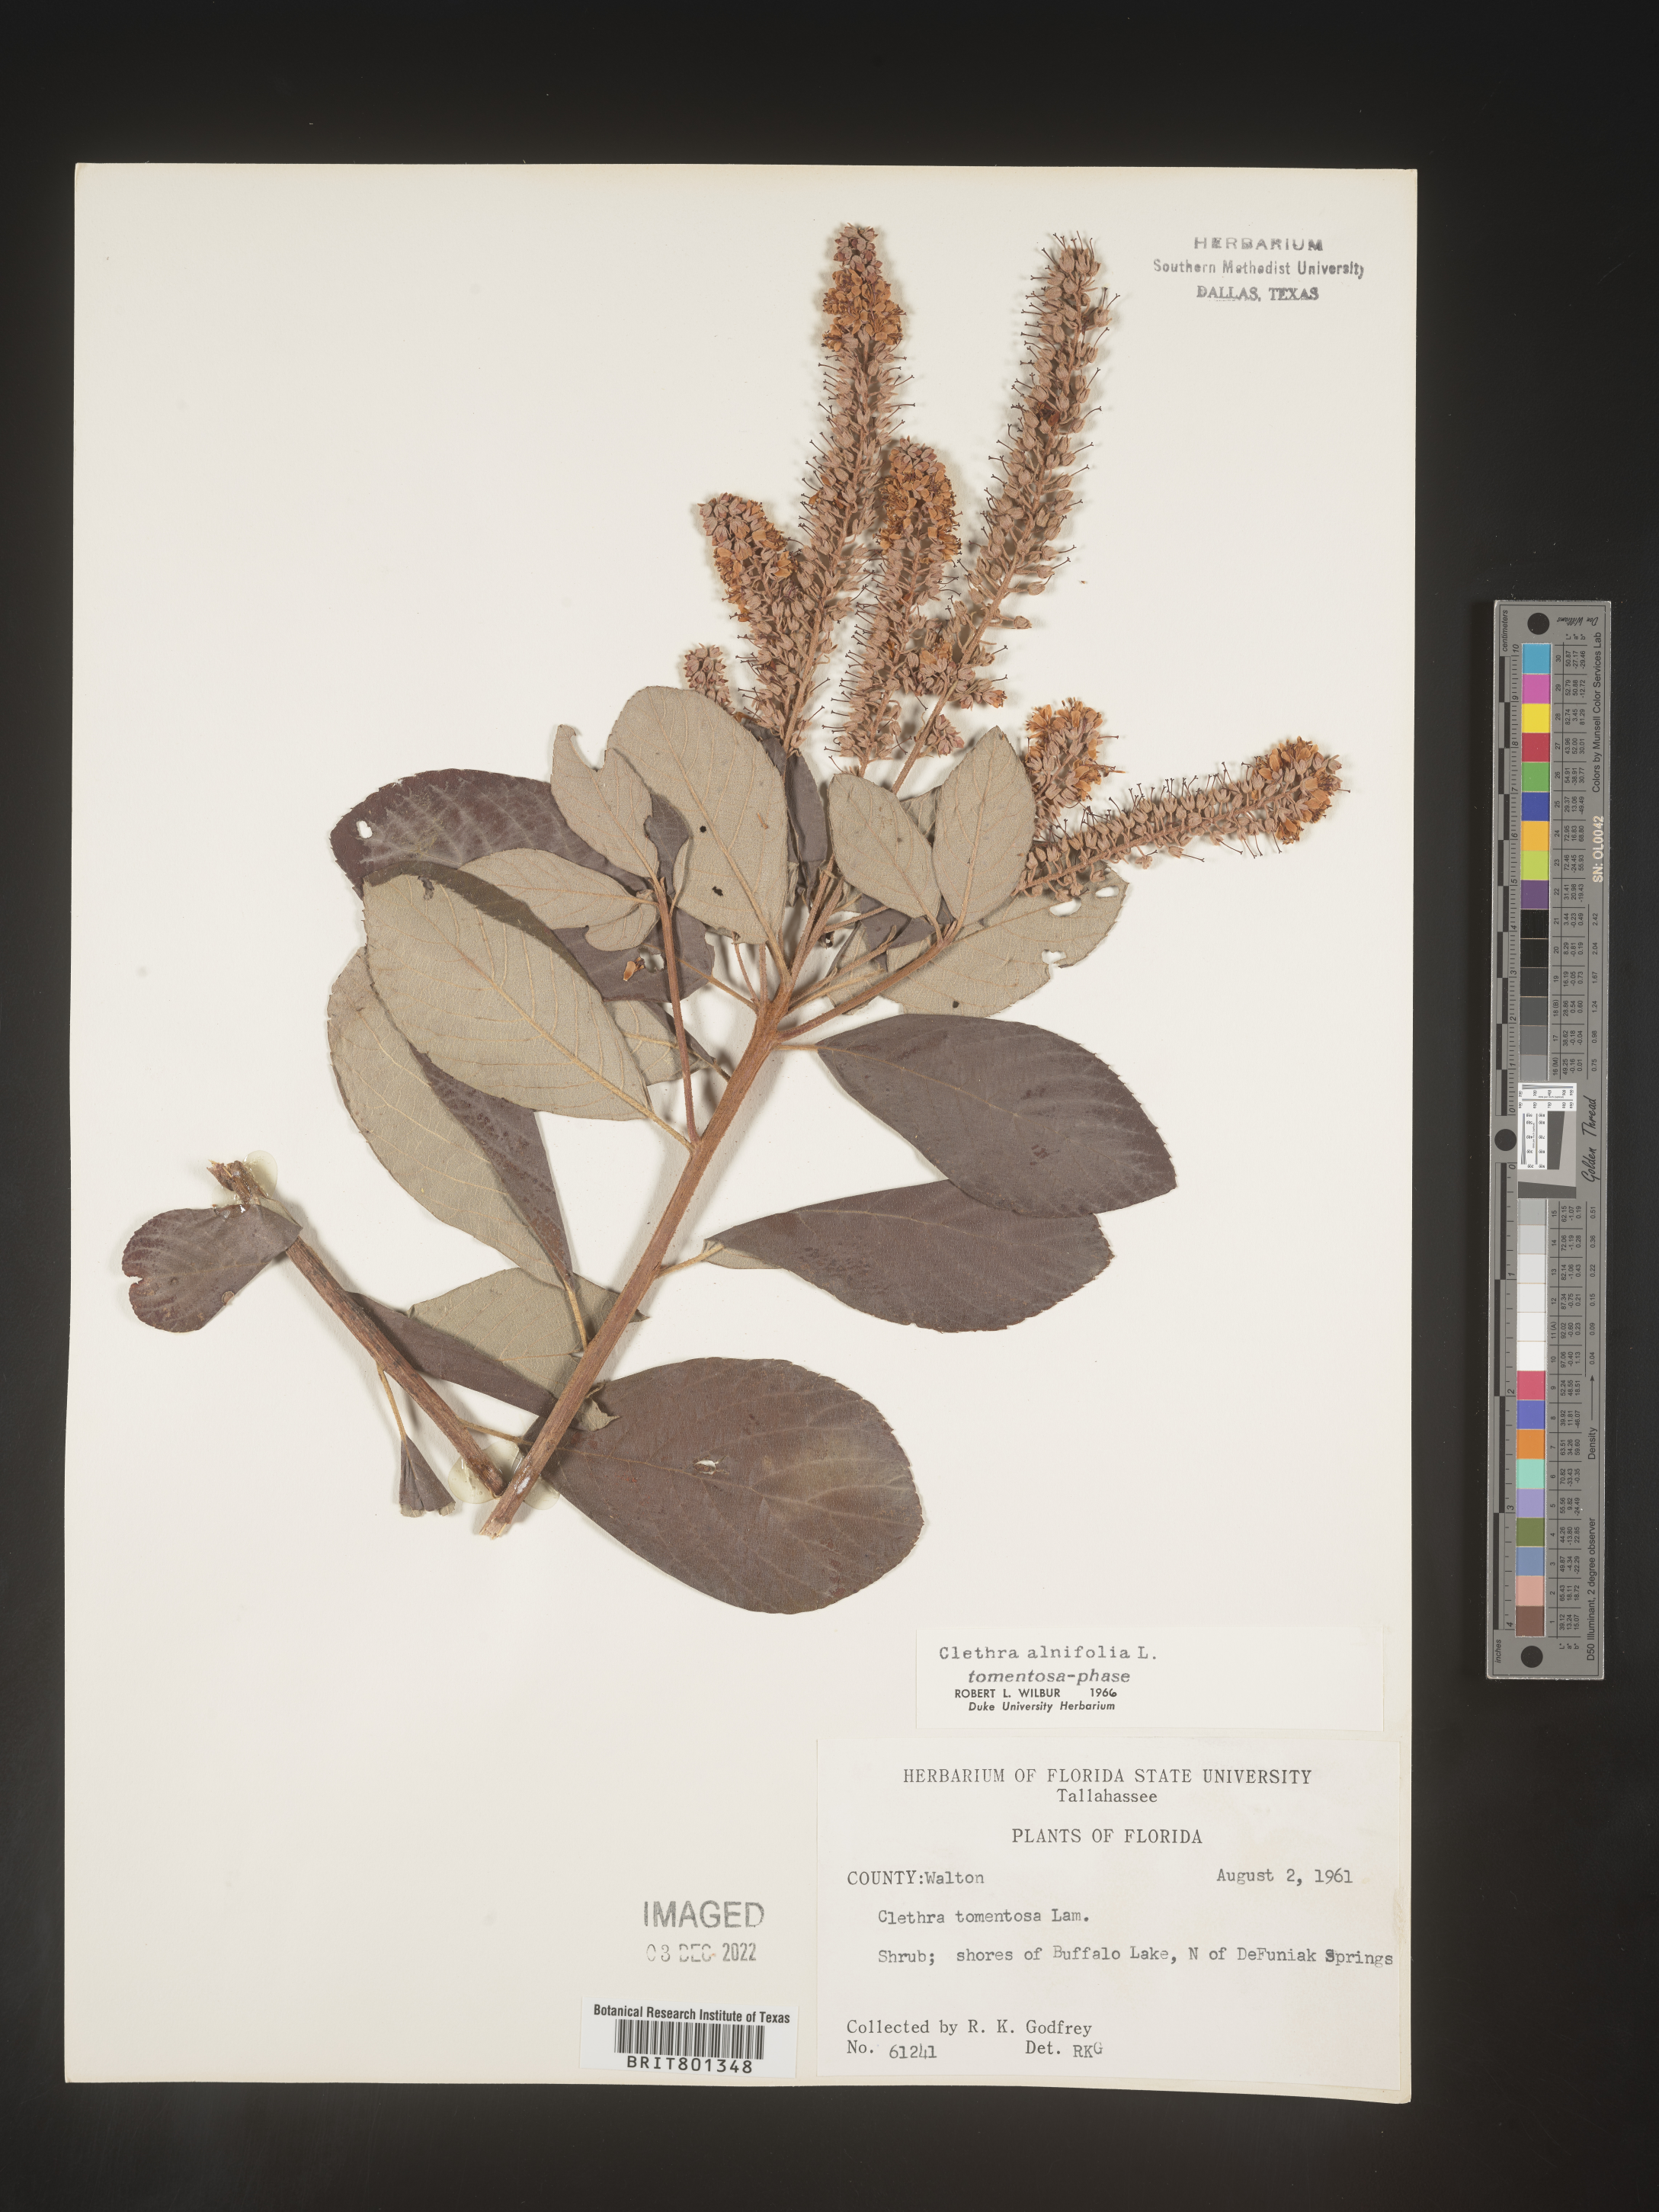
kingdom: Plantae
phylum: Tracheophyta
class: Magnoliopsida
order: Ericales
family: Clethraceae
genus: Clethra
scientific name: Clethra alnifolia
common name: Sweet pepperbush
